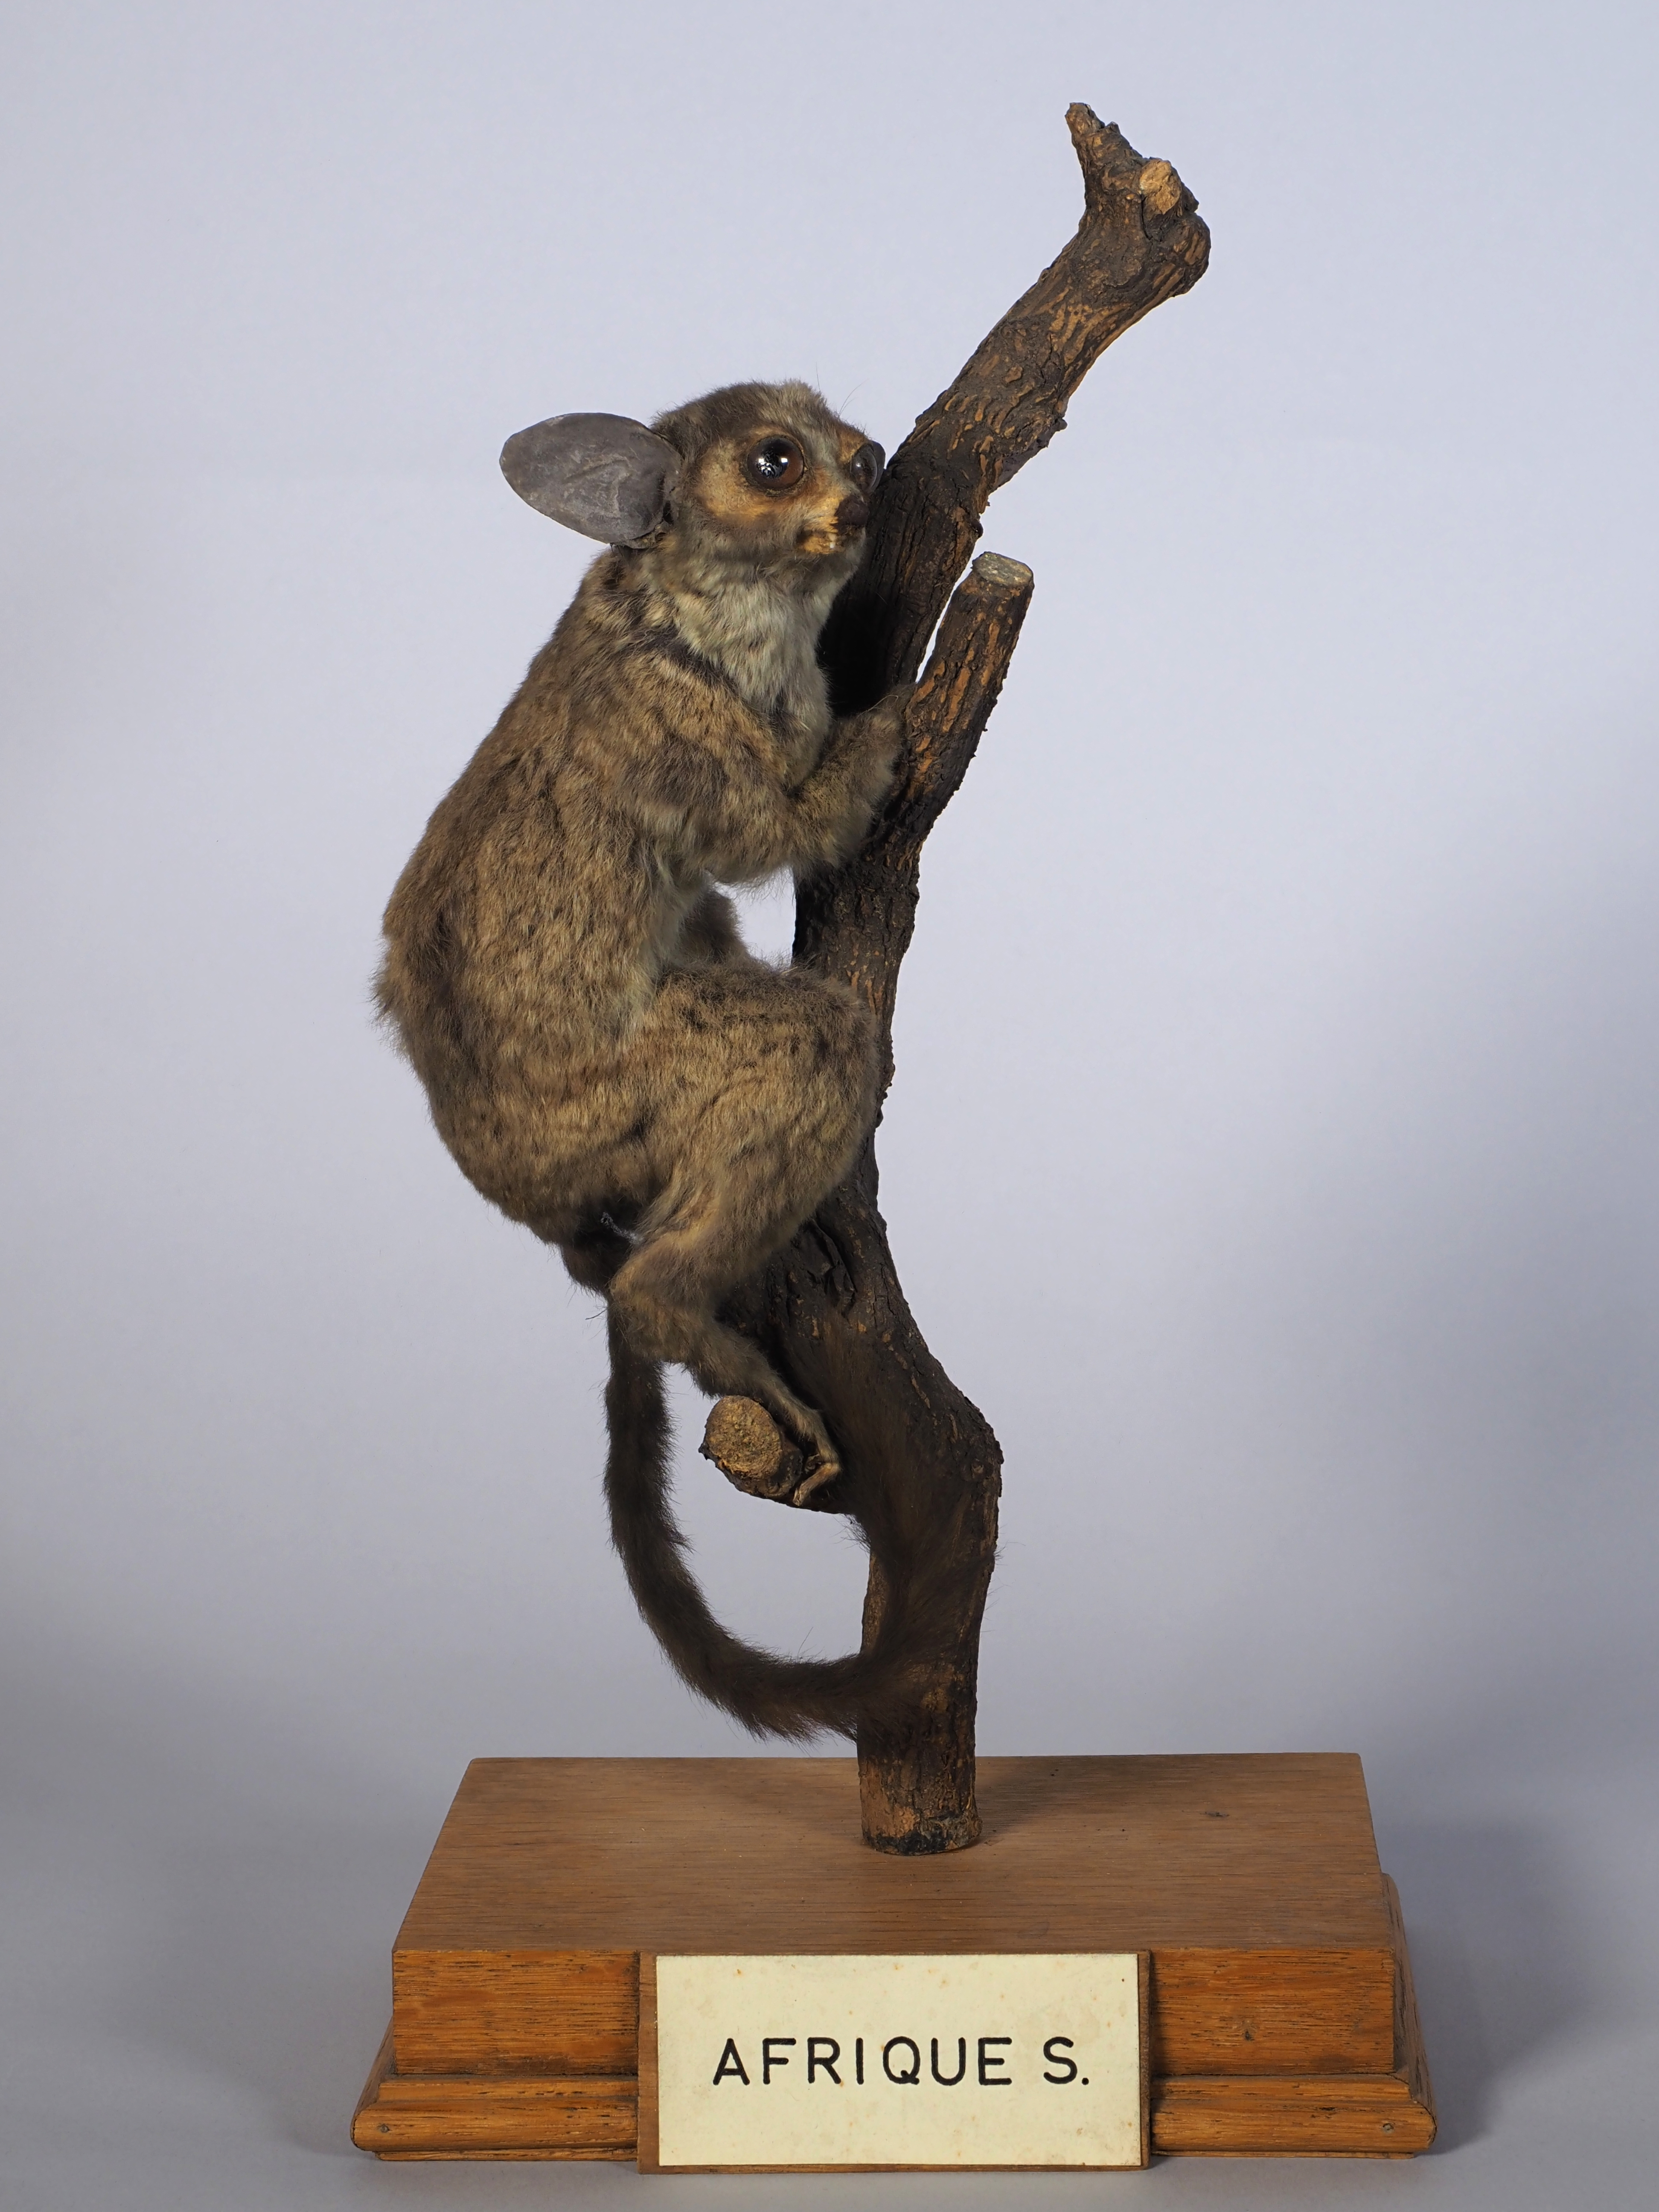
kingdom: Animalia
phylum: Chordata
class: Mammalia
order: Primates
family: Galagidae
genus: Galago
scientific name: Galago senegalensis
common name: Senegal bushbaby
